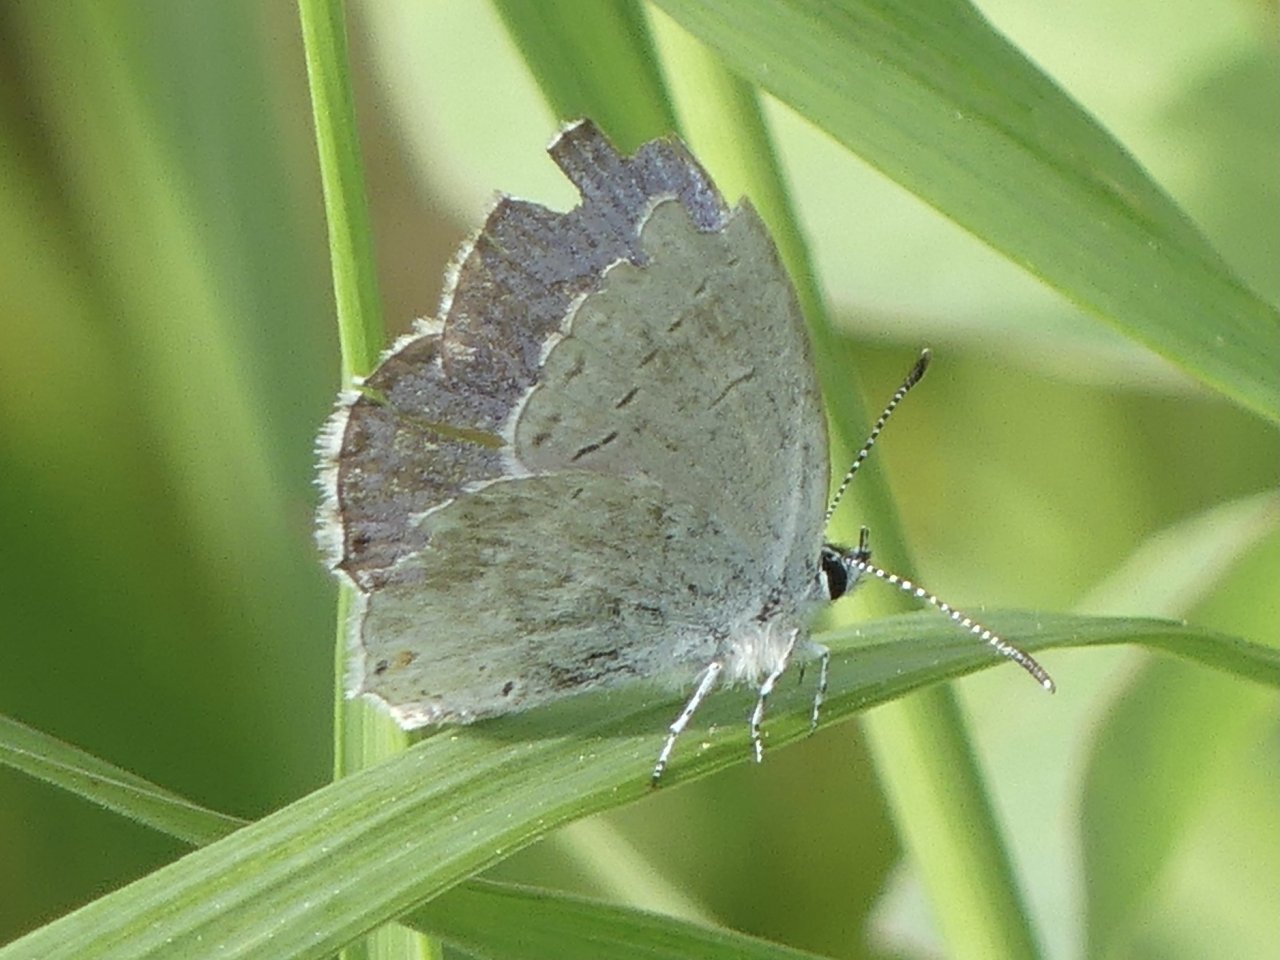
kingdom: Animalia
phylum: Arthropoda
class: Insecta
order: Lepidoptera
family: Lycaenidae
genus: Plebejus
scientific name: Plebejus saepiolus
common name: Greenish Blue
